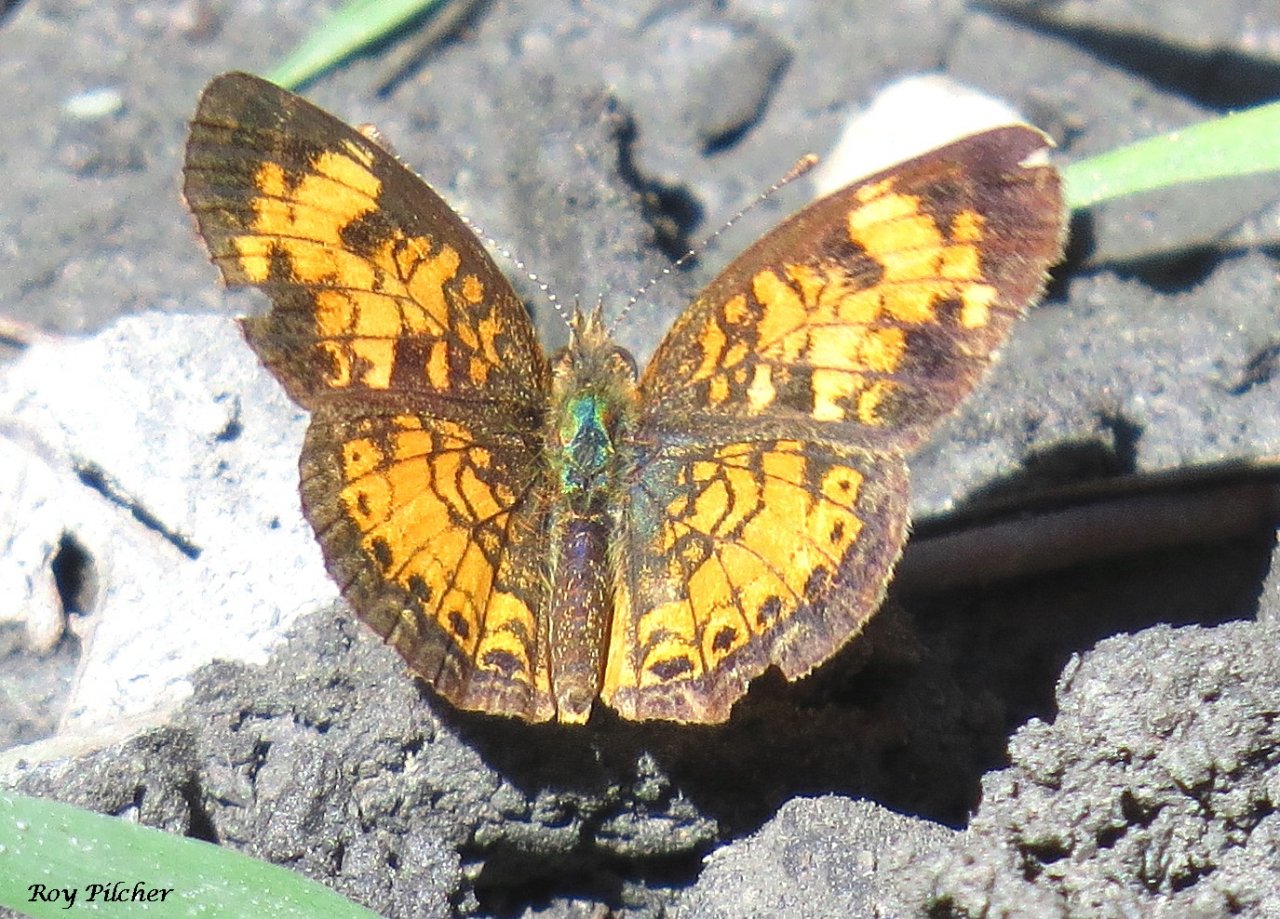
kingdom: Animalia
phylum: Arthropoda
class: Insecta
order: Lepidoptera
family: Nymphalidae
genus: Phyciodes
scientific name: Phyciodes tharos
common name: Northern Crescent
